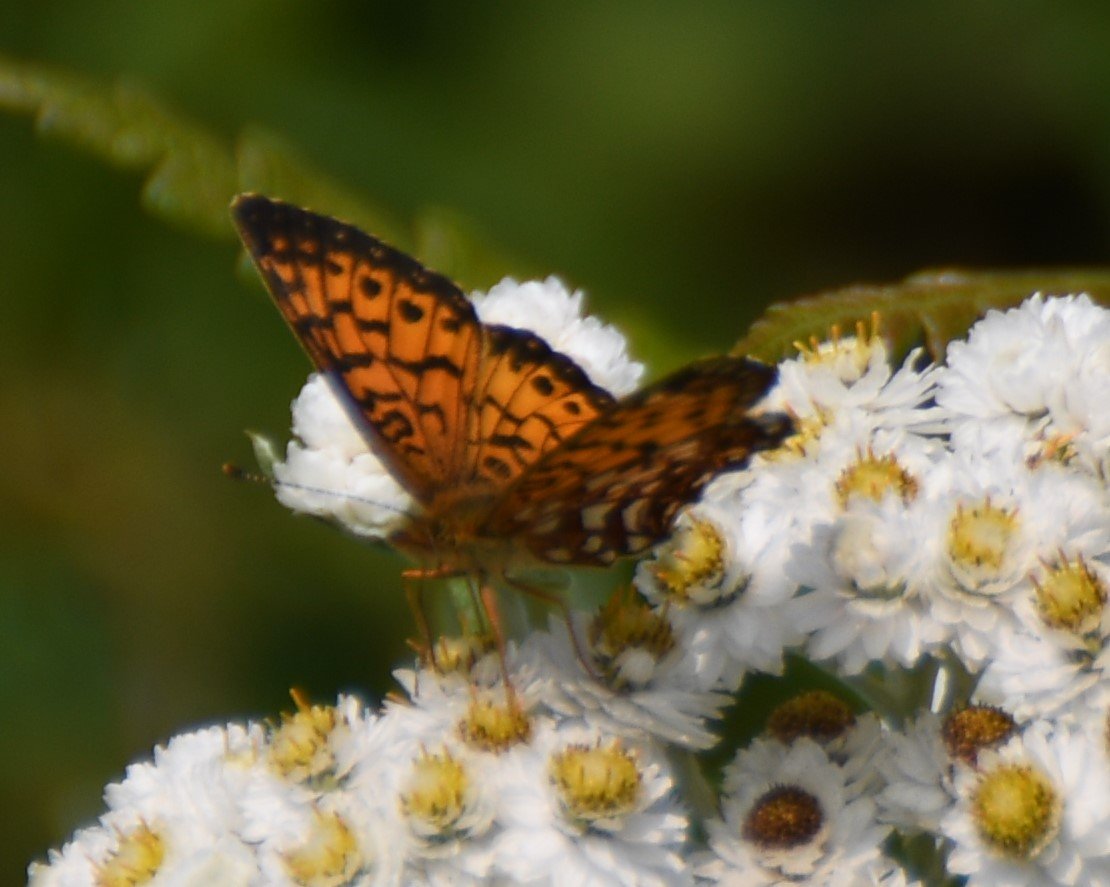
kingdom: Animalia
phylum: Arthropoda
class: Insecta
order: Lepidoptera
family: Nymphalidae
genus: Boloria
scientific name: Boloria selene
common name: Silver-bordered Fritillary
